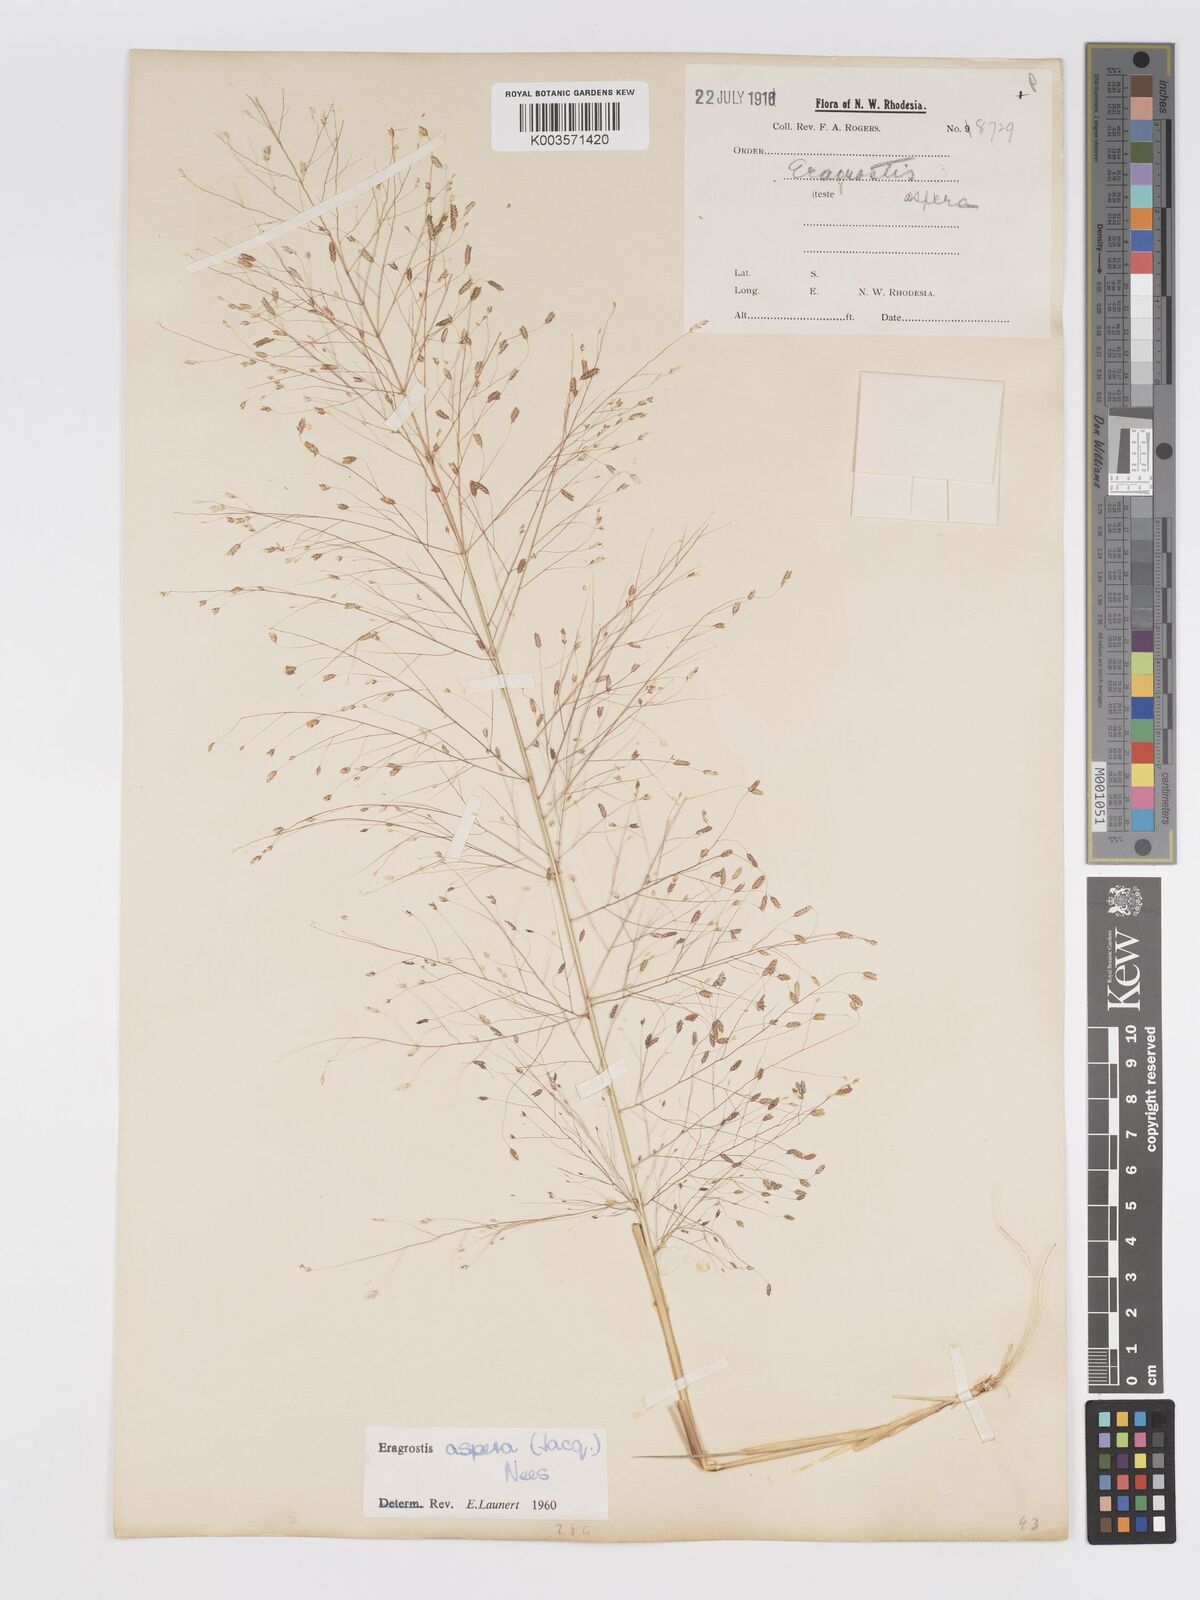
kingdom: Plantae
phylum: Tracheophyta
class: Liliopsida
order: Poales
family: Poaceae
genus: Eragrostis
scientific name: Eragrostis aspera
